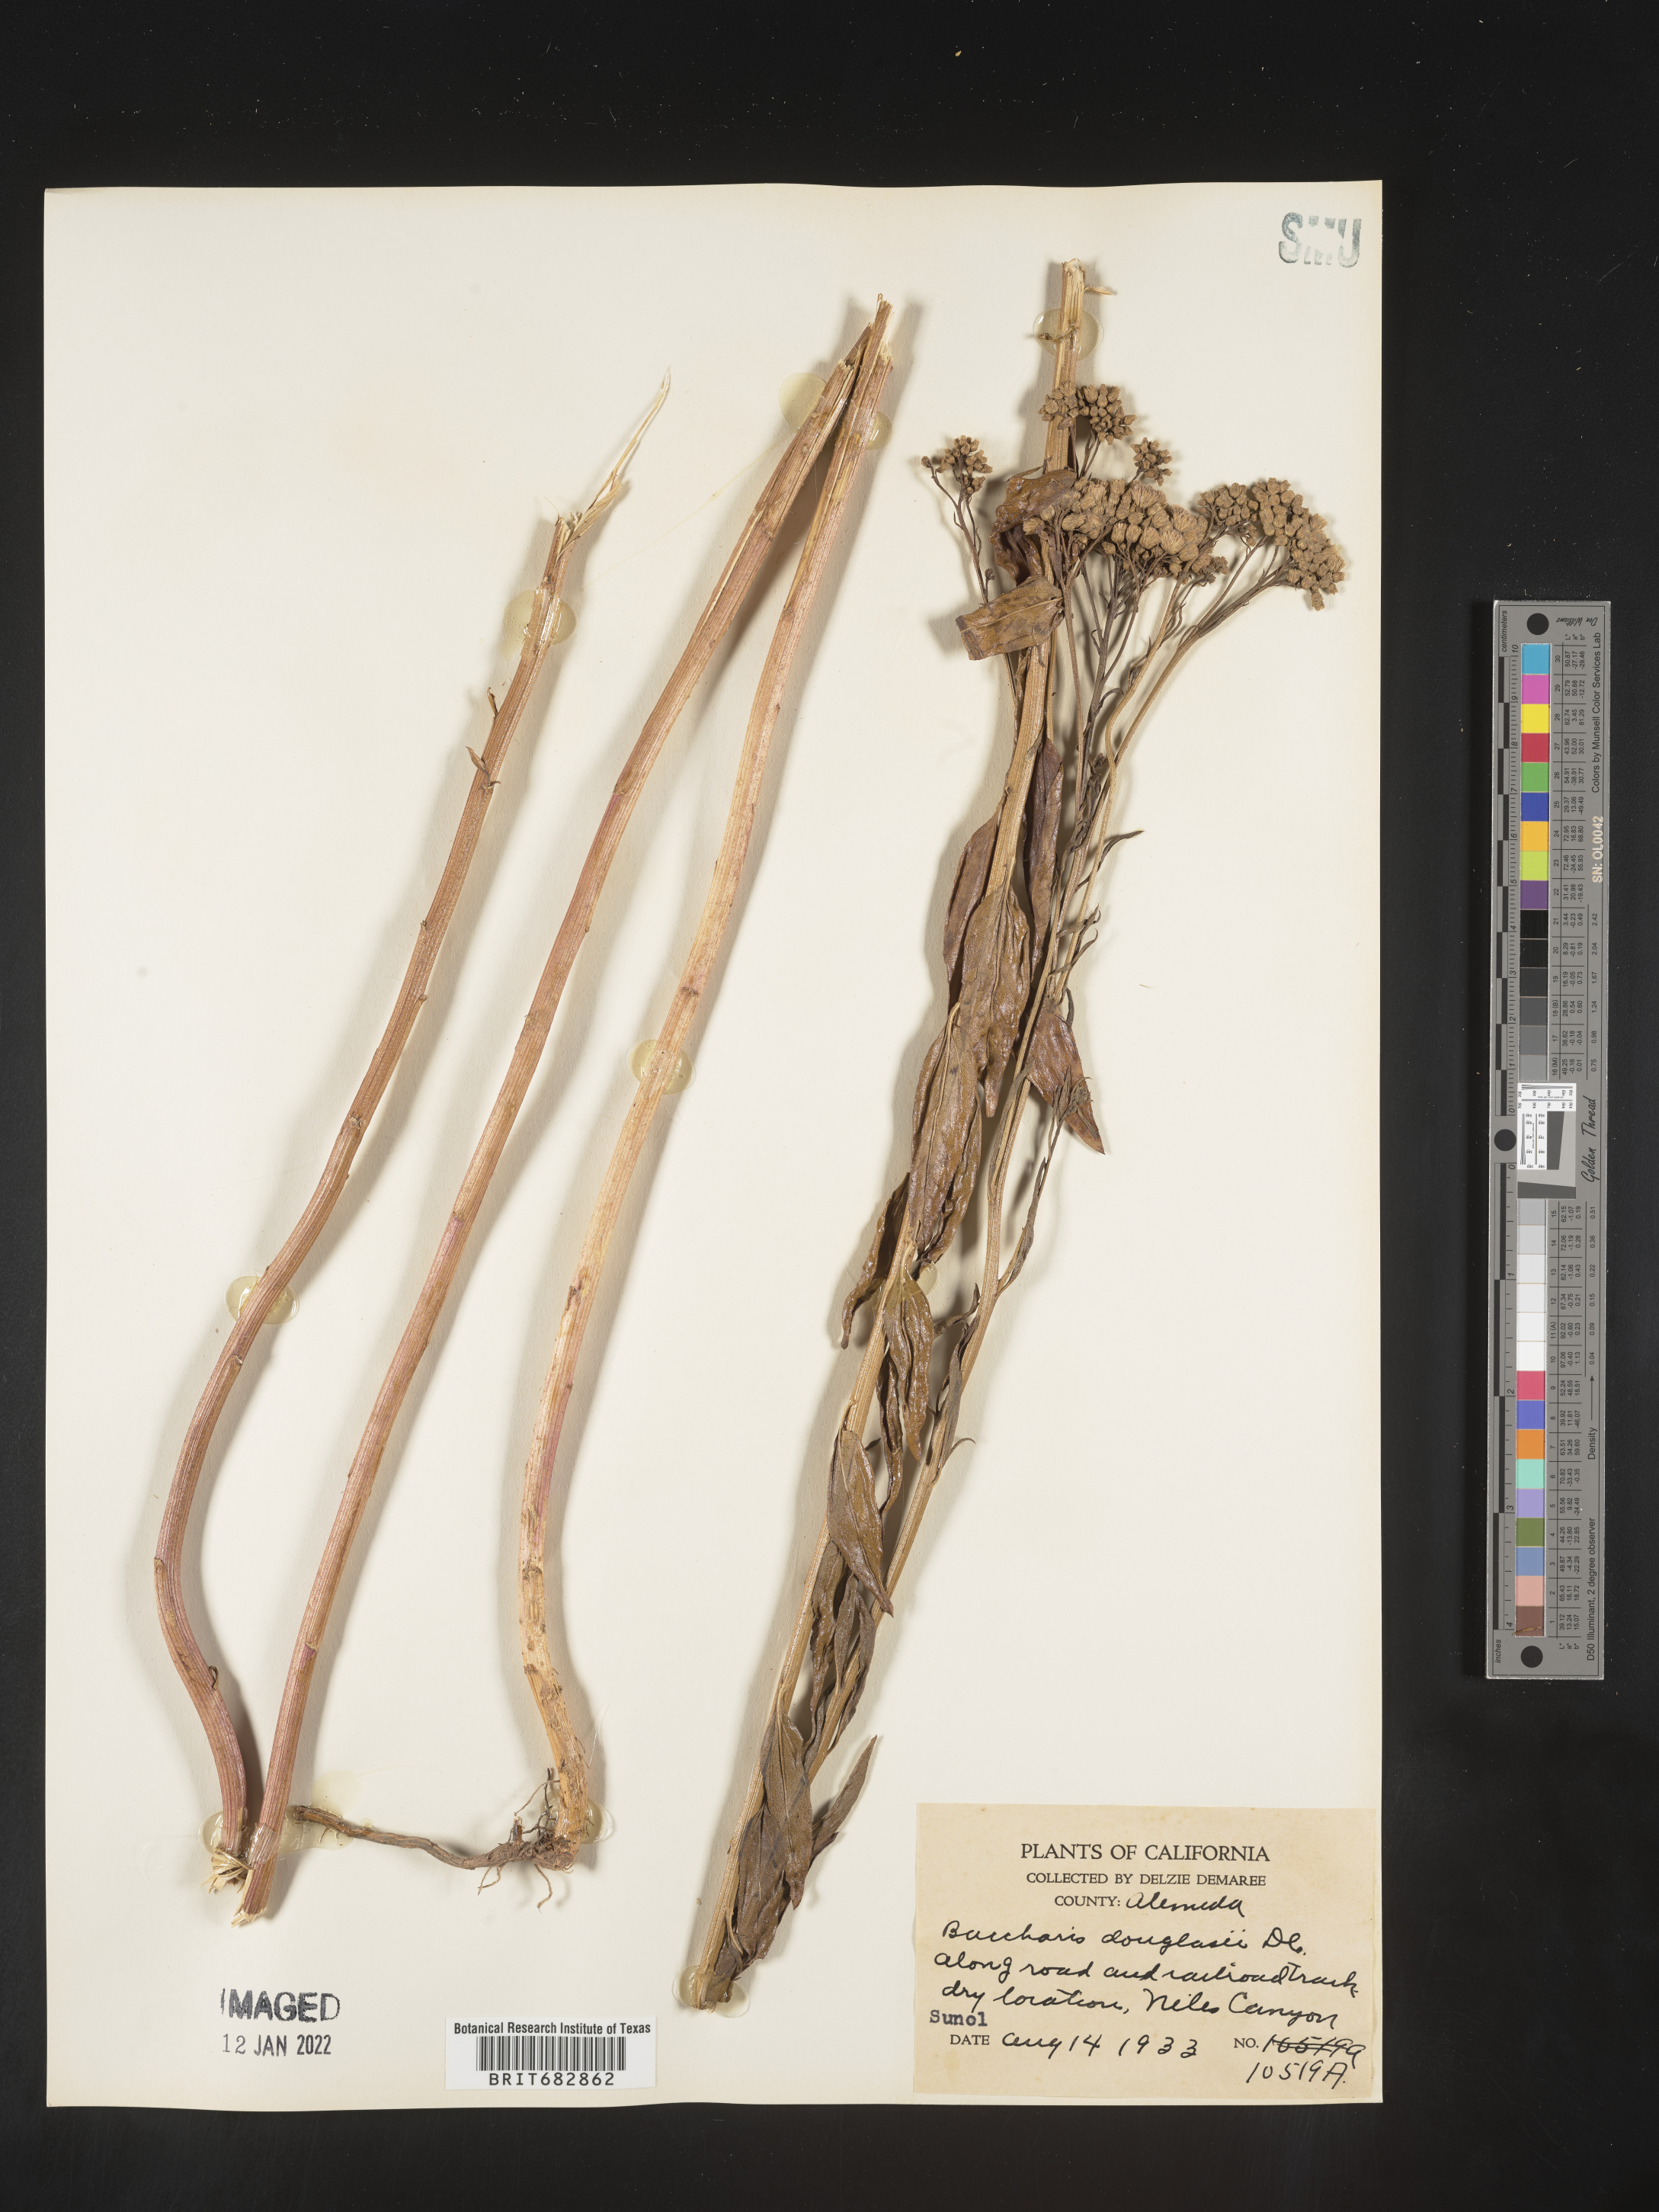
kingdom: Plantae
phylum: Tracheophyta
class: Magnoliopsida
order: Asterales
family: Asteraceae
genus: Baccharis
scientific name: Baccharis douglasii
